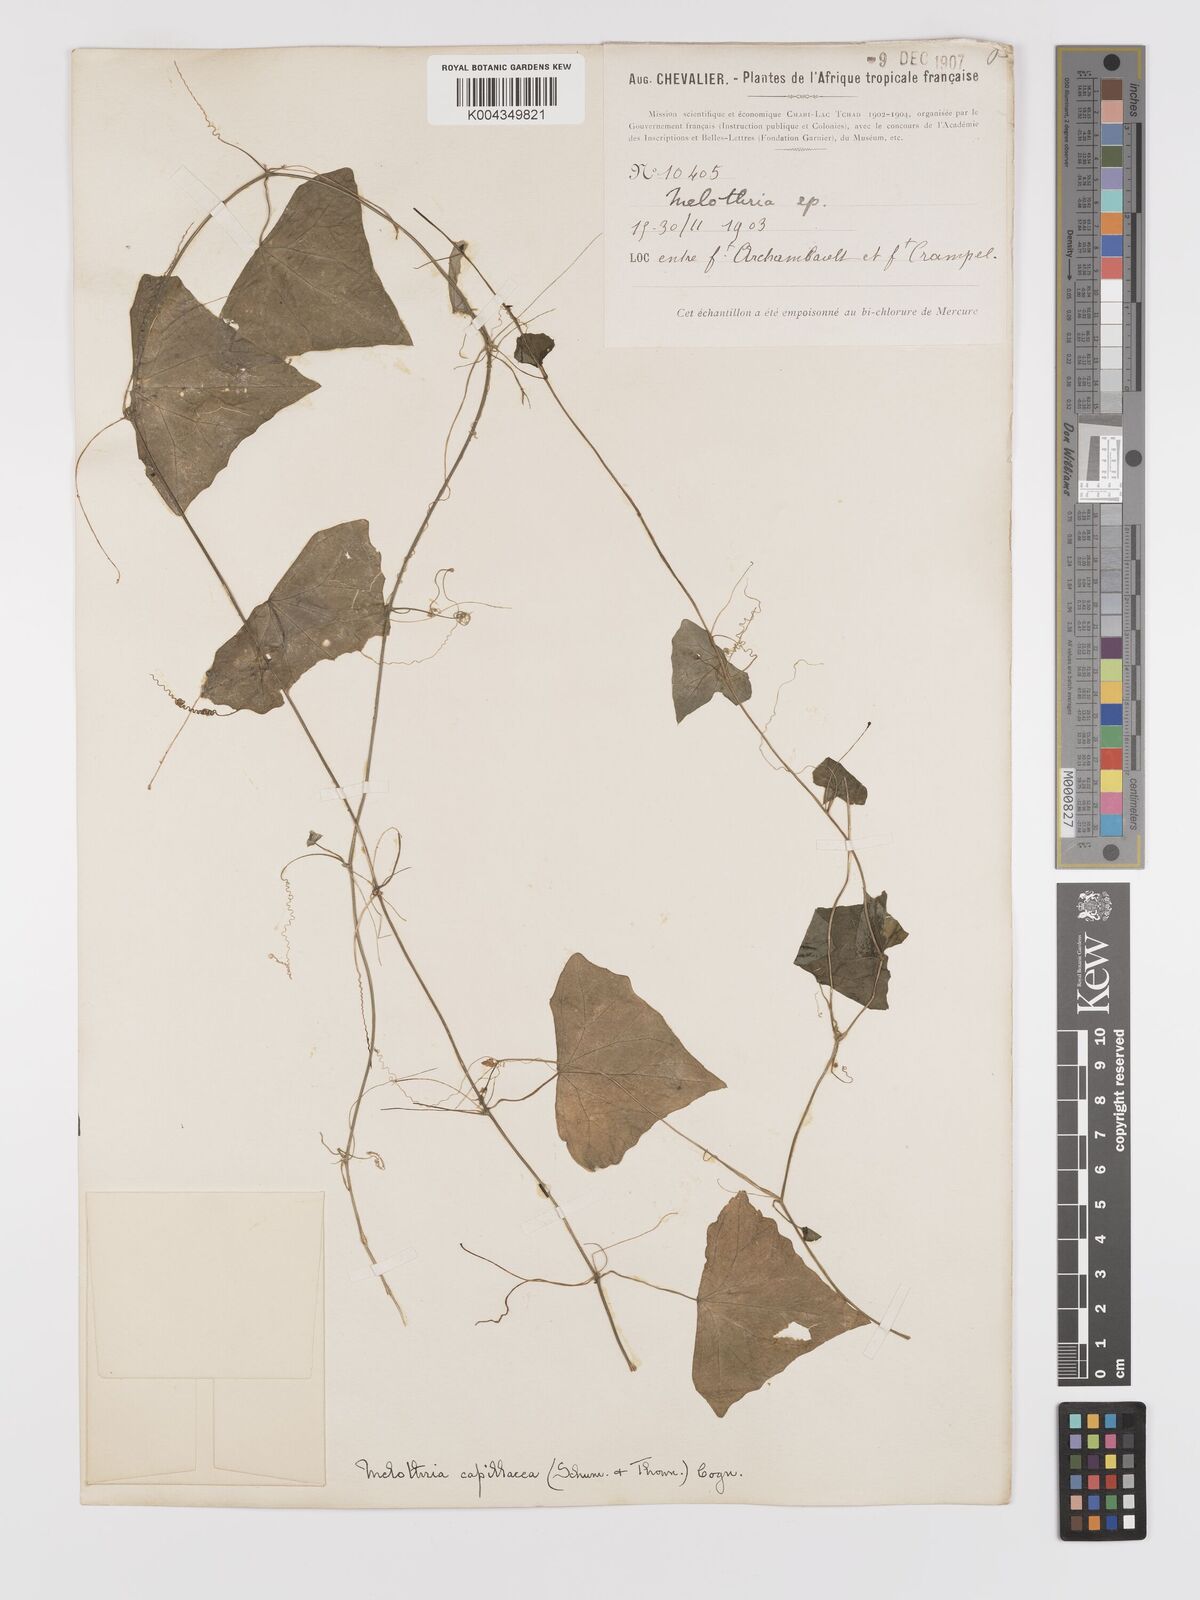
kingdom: Plantae
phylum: Tracheophyta
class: Magnoliopsida
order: Cucurbitales
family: Cucurbitaceae
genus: Zehneria
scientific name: Zehneria capillacea
